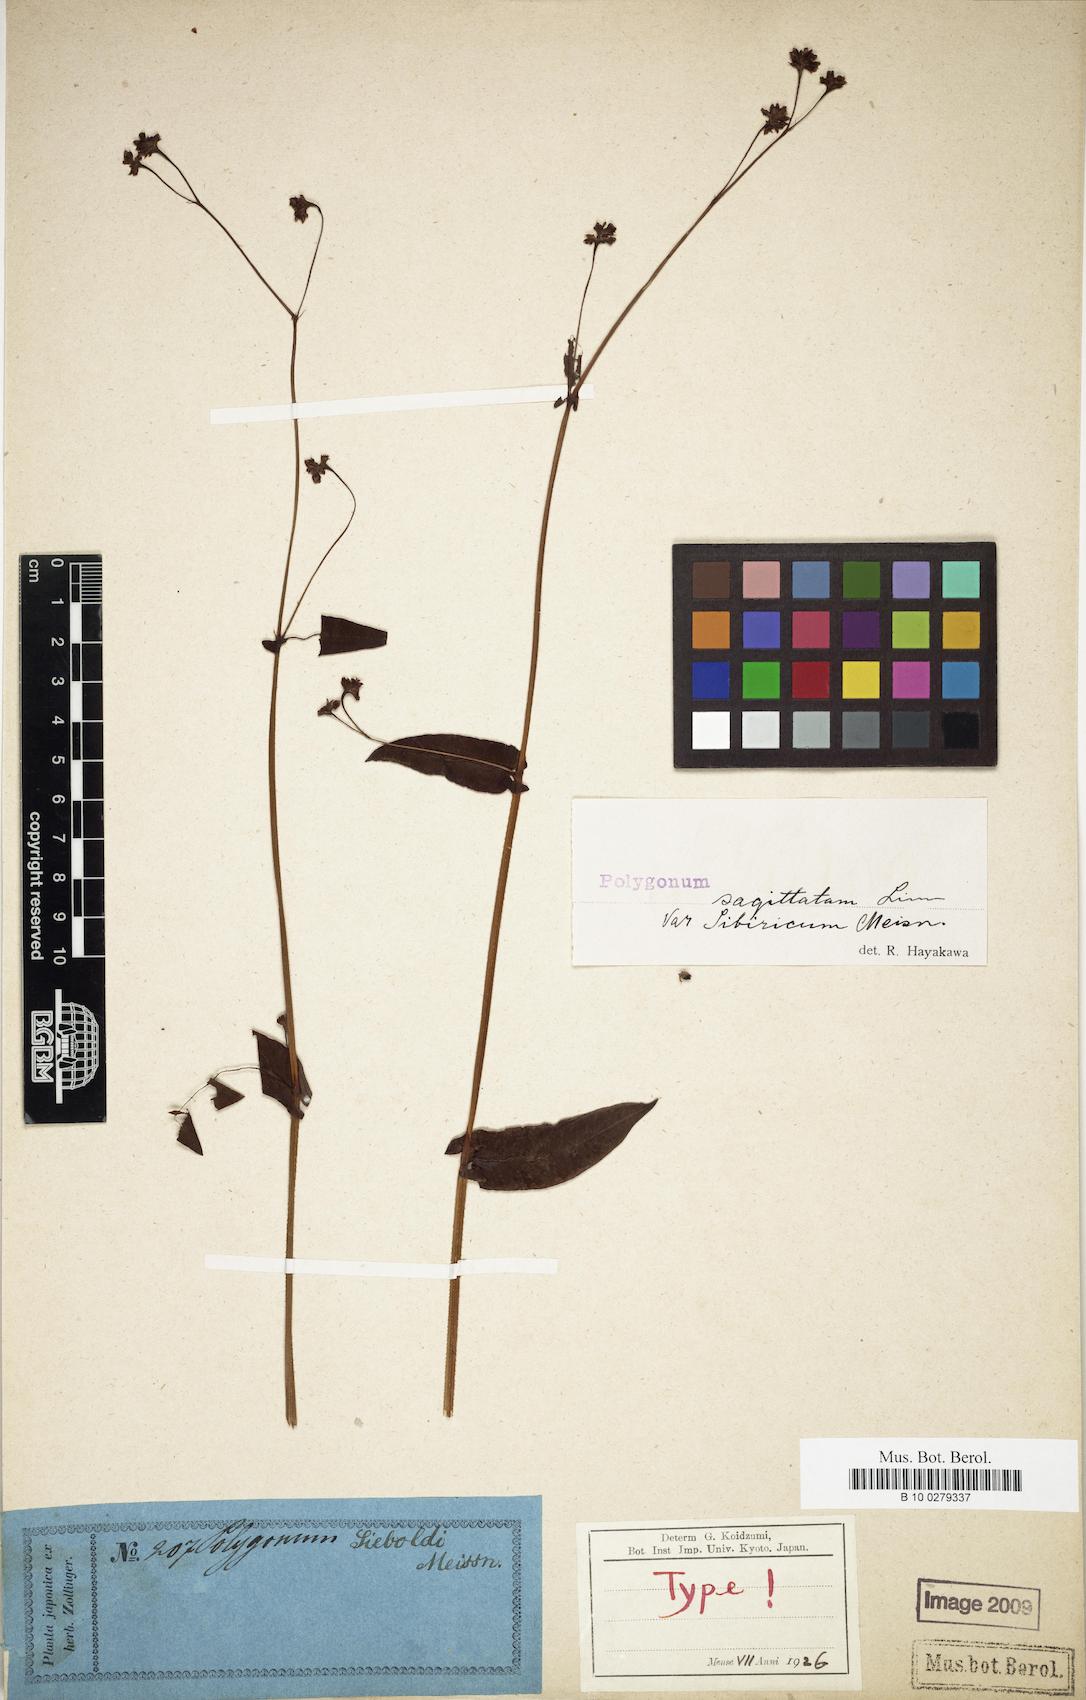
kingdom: Plantae
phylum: Tracheophyta
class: Magnoliopsida
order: Caryophyllales
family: Polygonaceae
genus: Persicaria
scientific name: Persicaria sagittata
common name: American tearthumb
